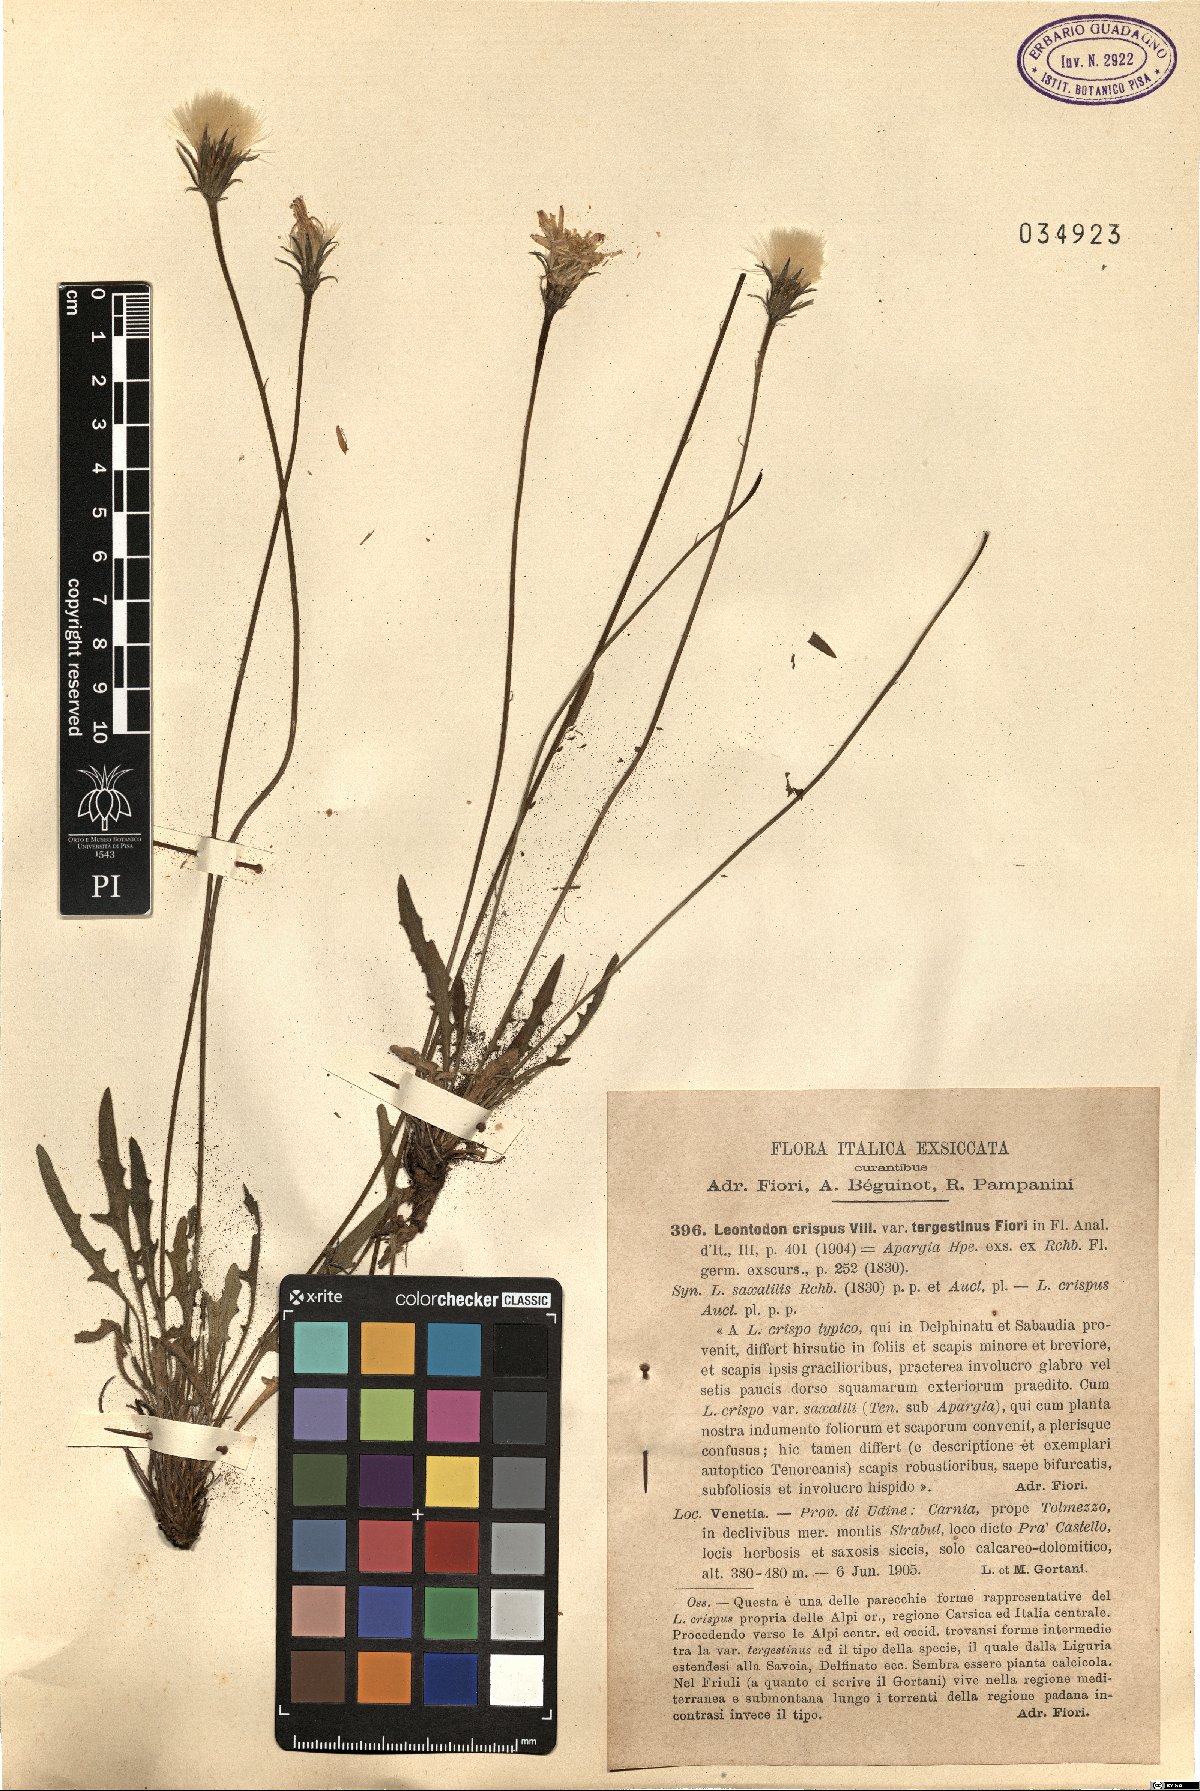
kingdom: Plantae
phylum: Tracheophyta
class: Magnoliopsida
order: Asterales
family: Asteraceae
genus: Leontodon
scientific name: Leontodon crispus
